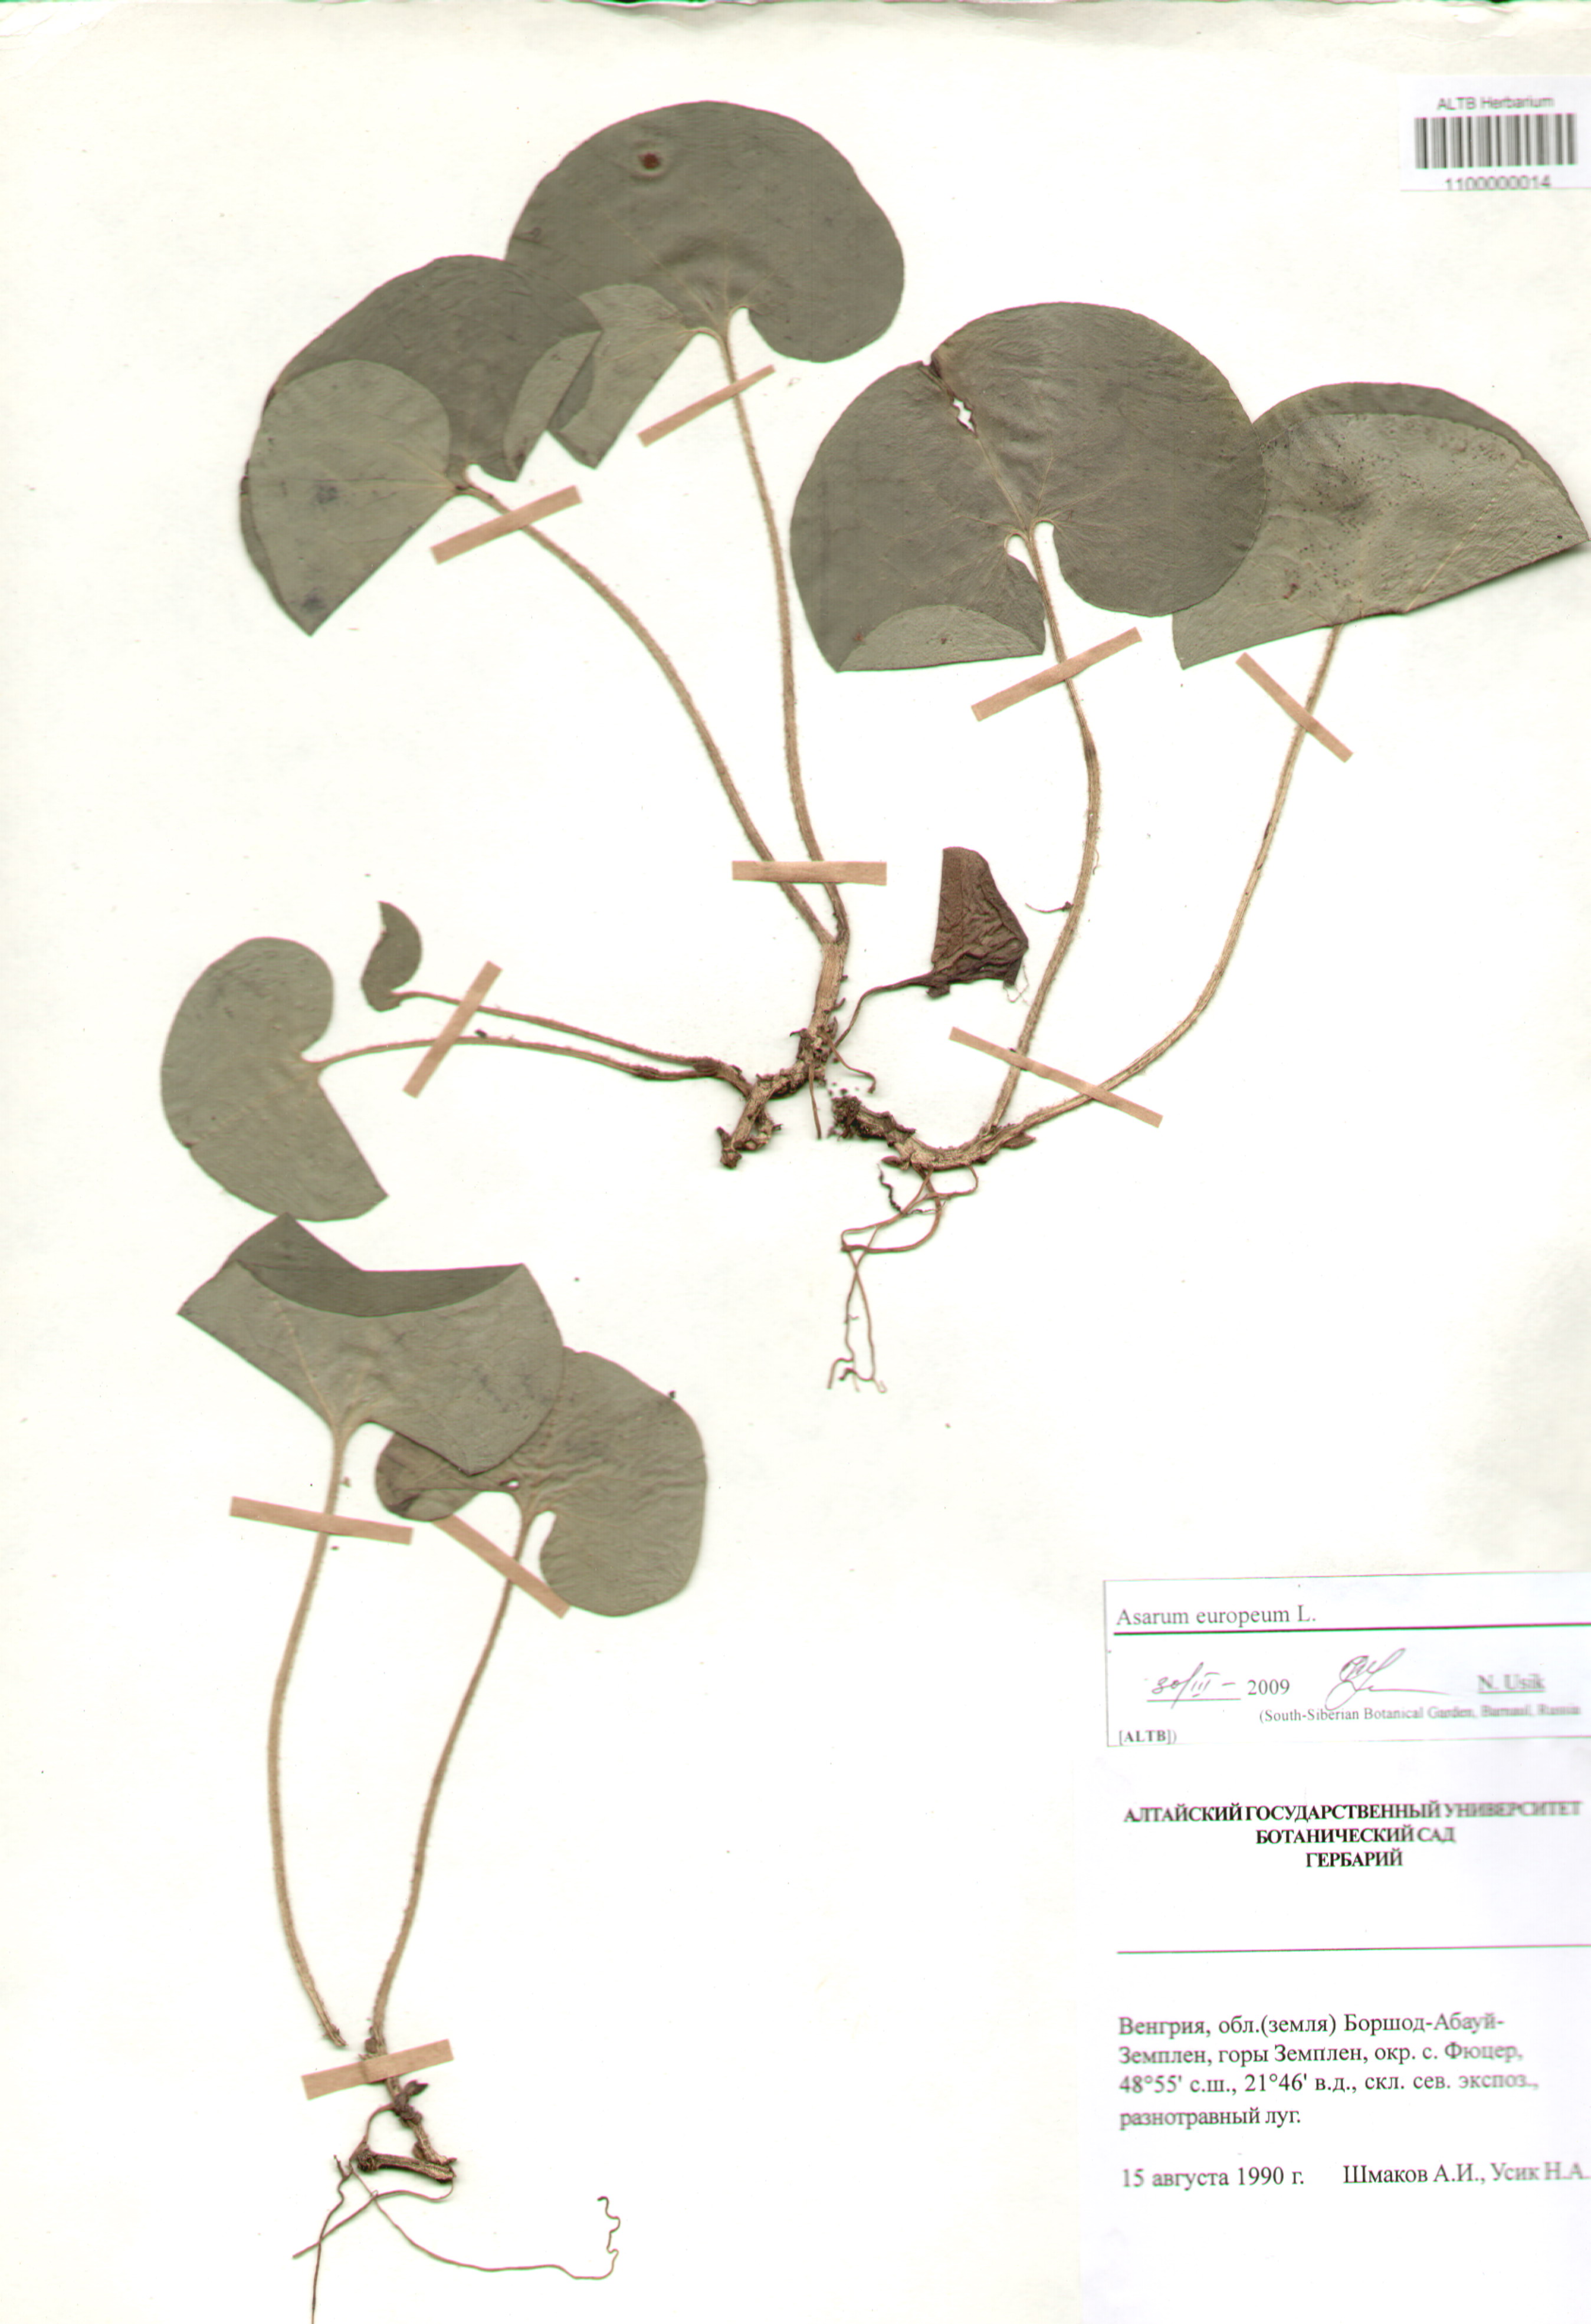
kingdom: Plantae
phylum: Tracheophyta
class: Magnoliopsida
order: Piperales
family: Aristolochiaceae
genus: Asarum
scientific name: Asarum europaeum
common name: Asarabacca
